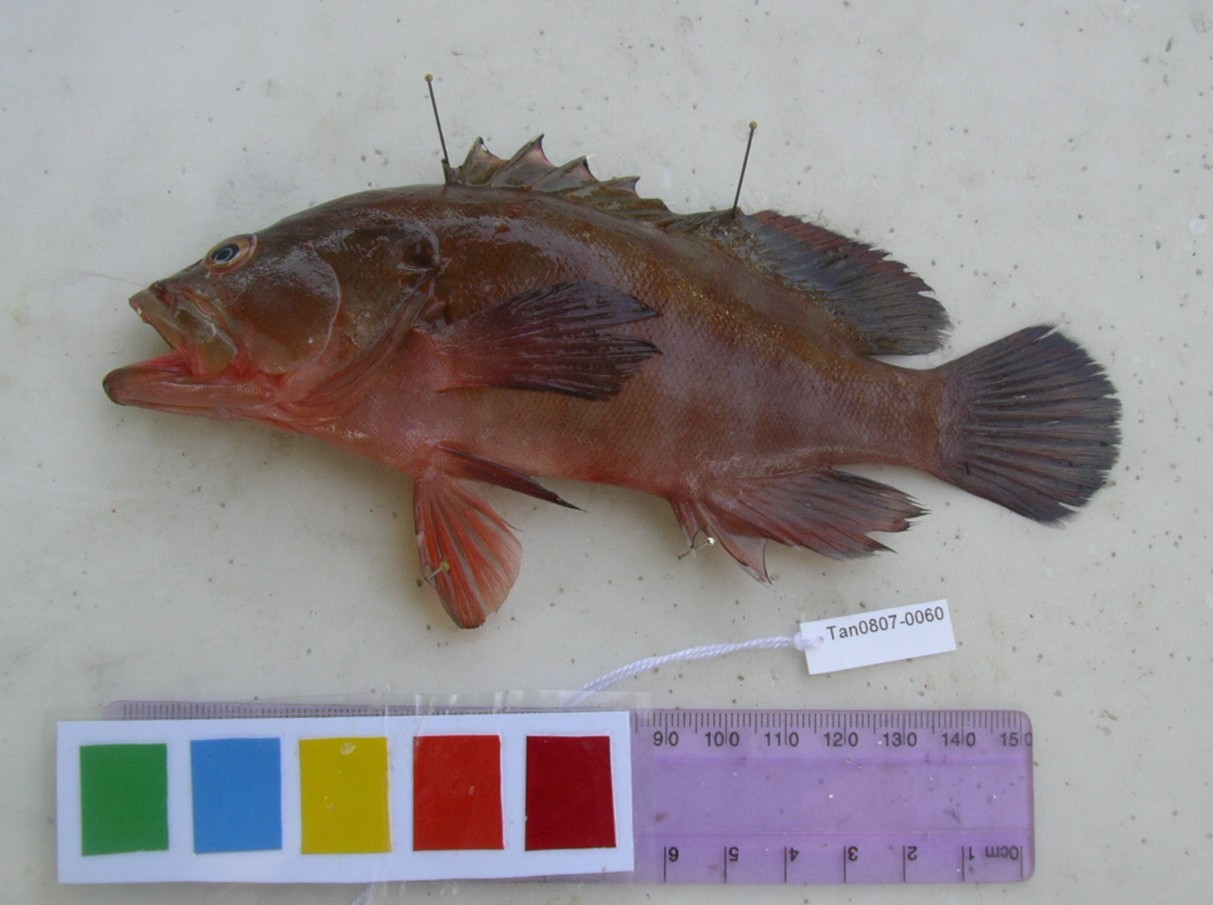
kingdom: Animalia
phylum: Chordata
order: Perciformes
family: Serranidae
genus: Cephalopholis
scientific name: Cephalopholis boenak
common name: Chocolate hind
